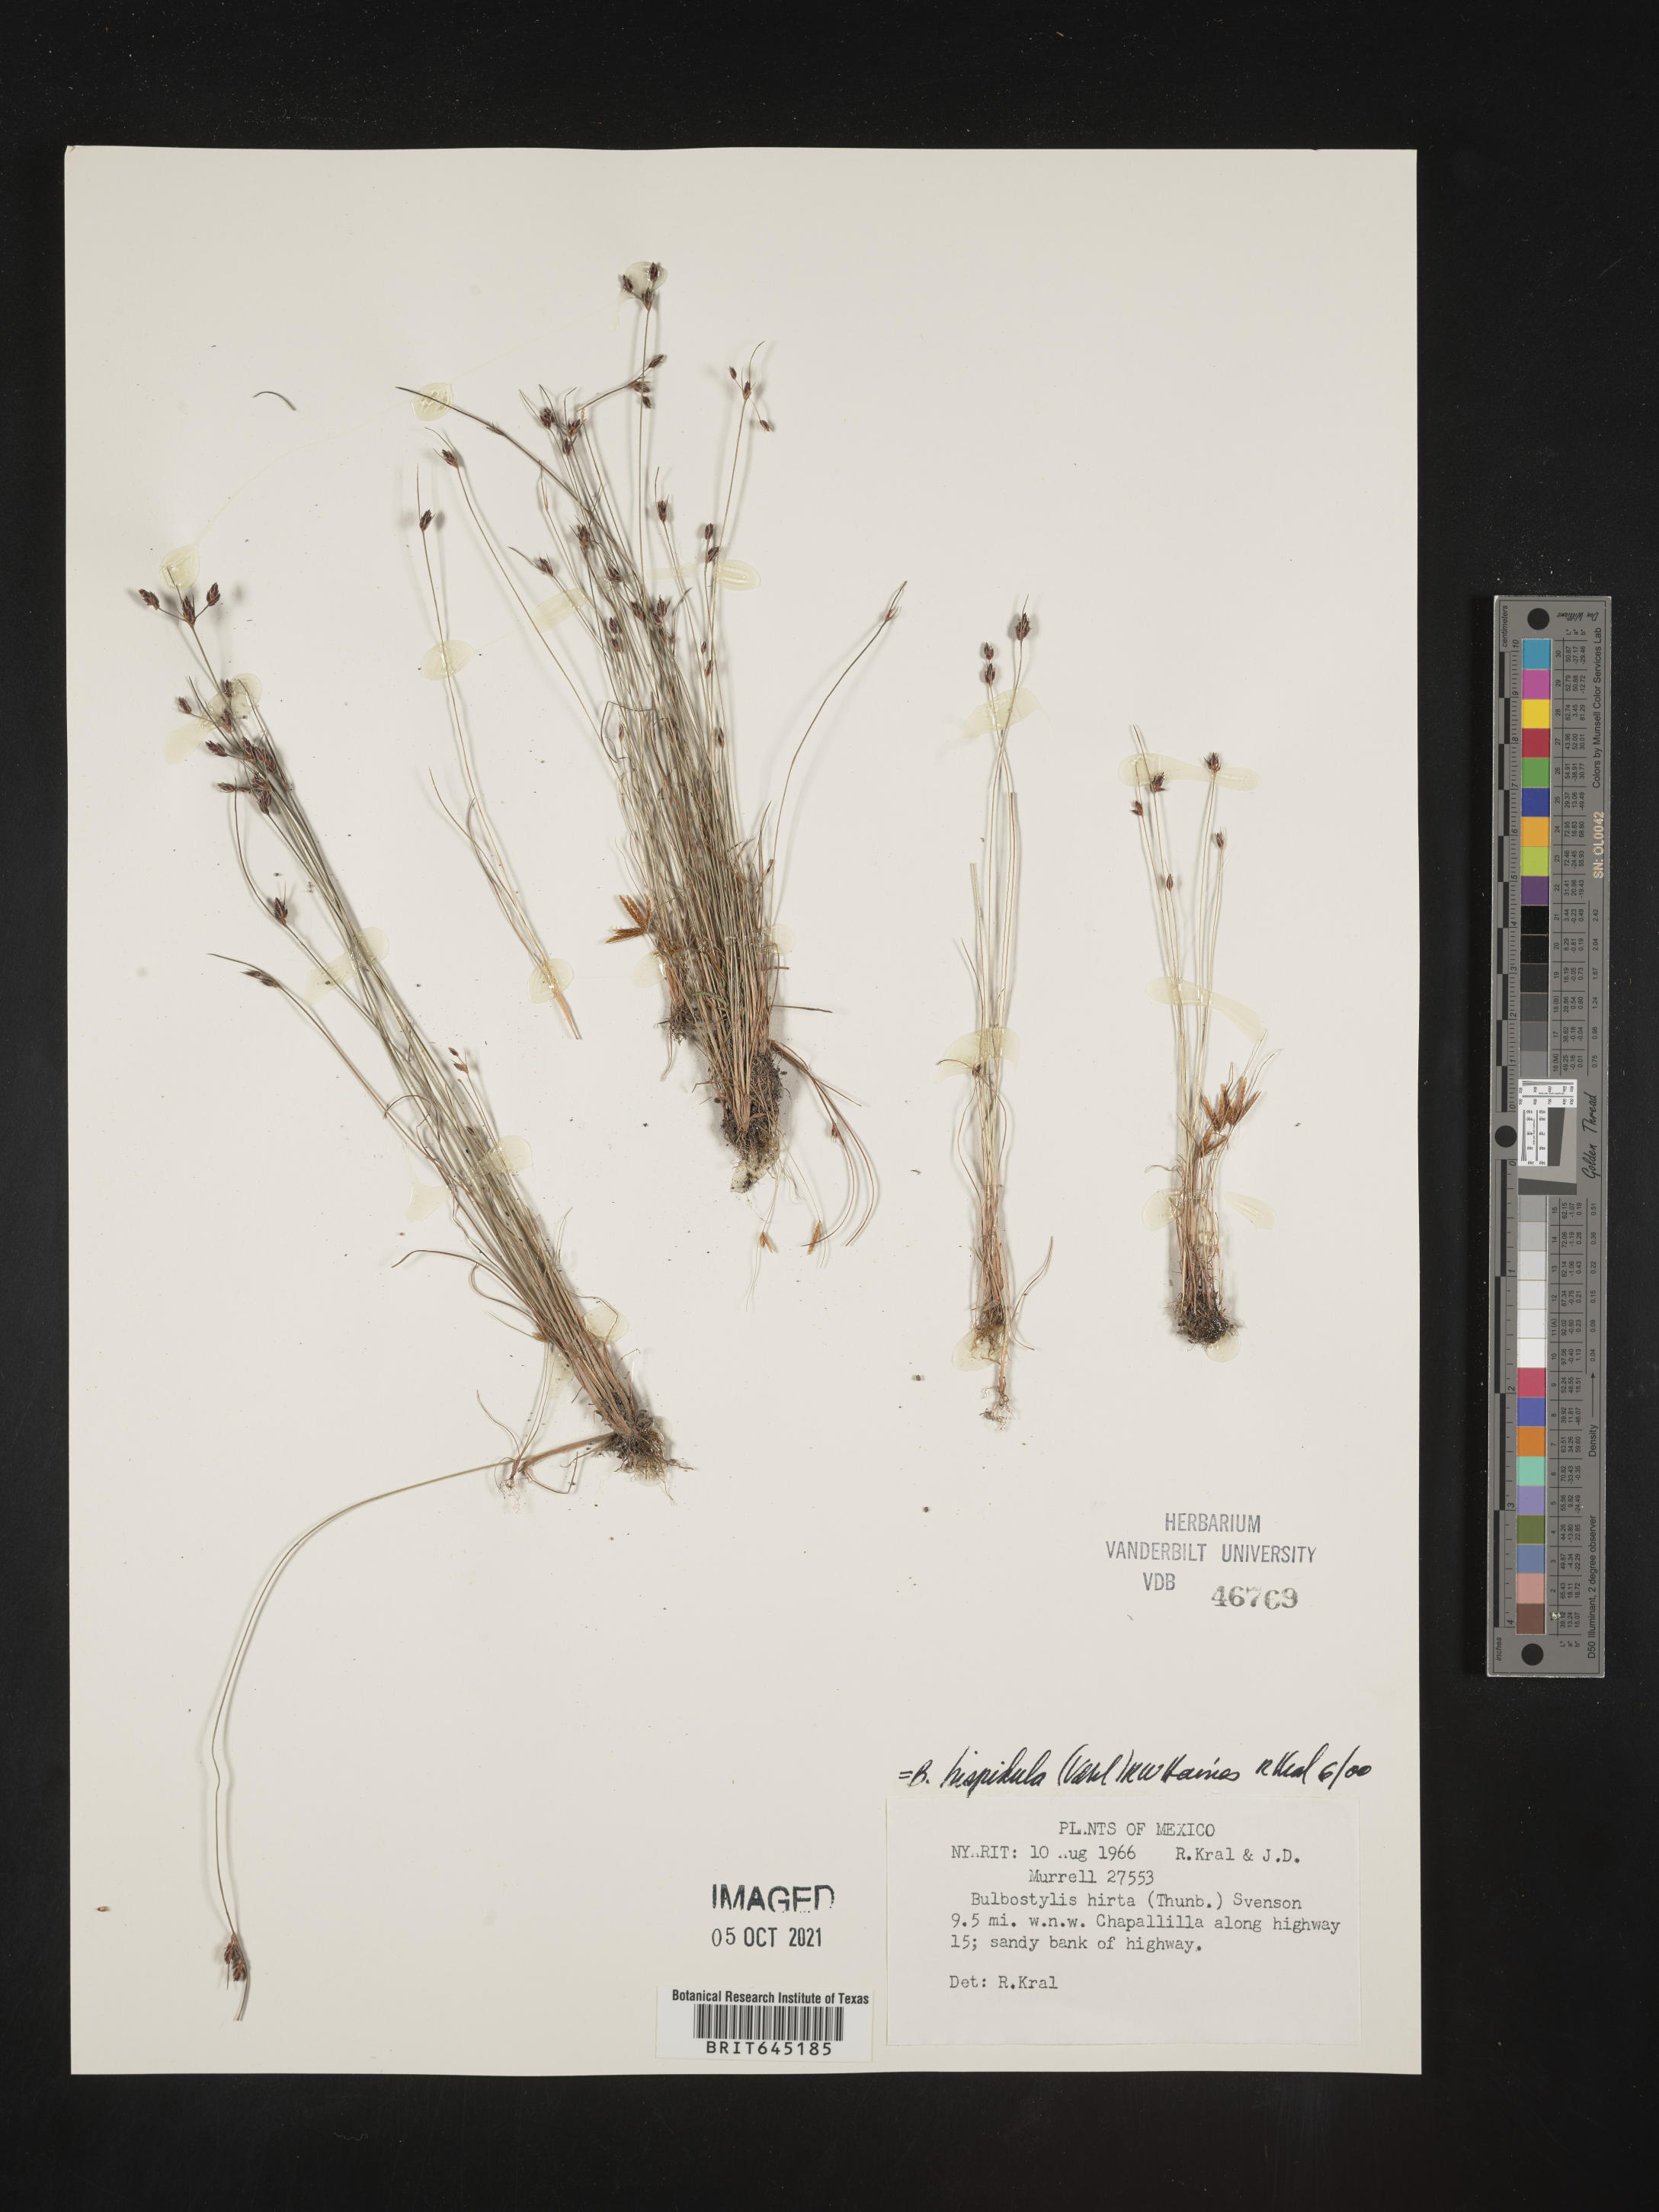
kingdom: Plantae
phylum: Tracheophyta
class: Liliopsida
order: Poales
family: Cyperaceae
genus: Bulbostylis
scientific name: Bulbostylis
